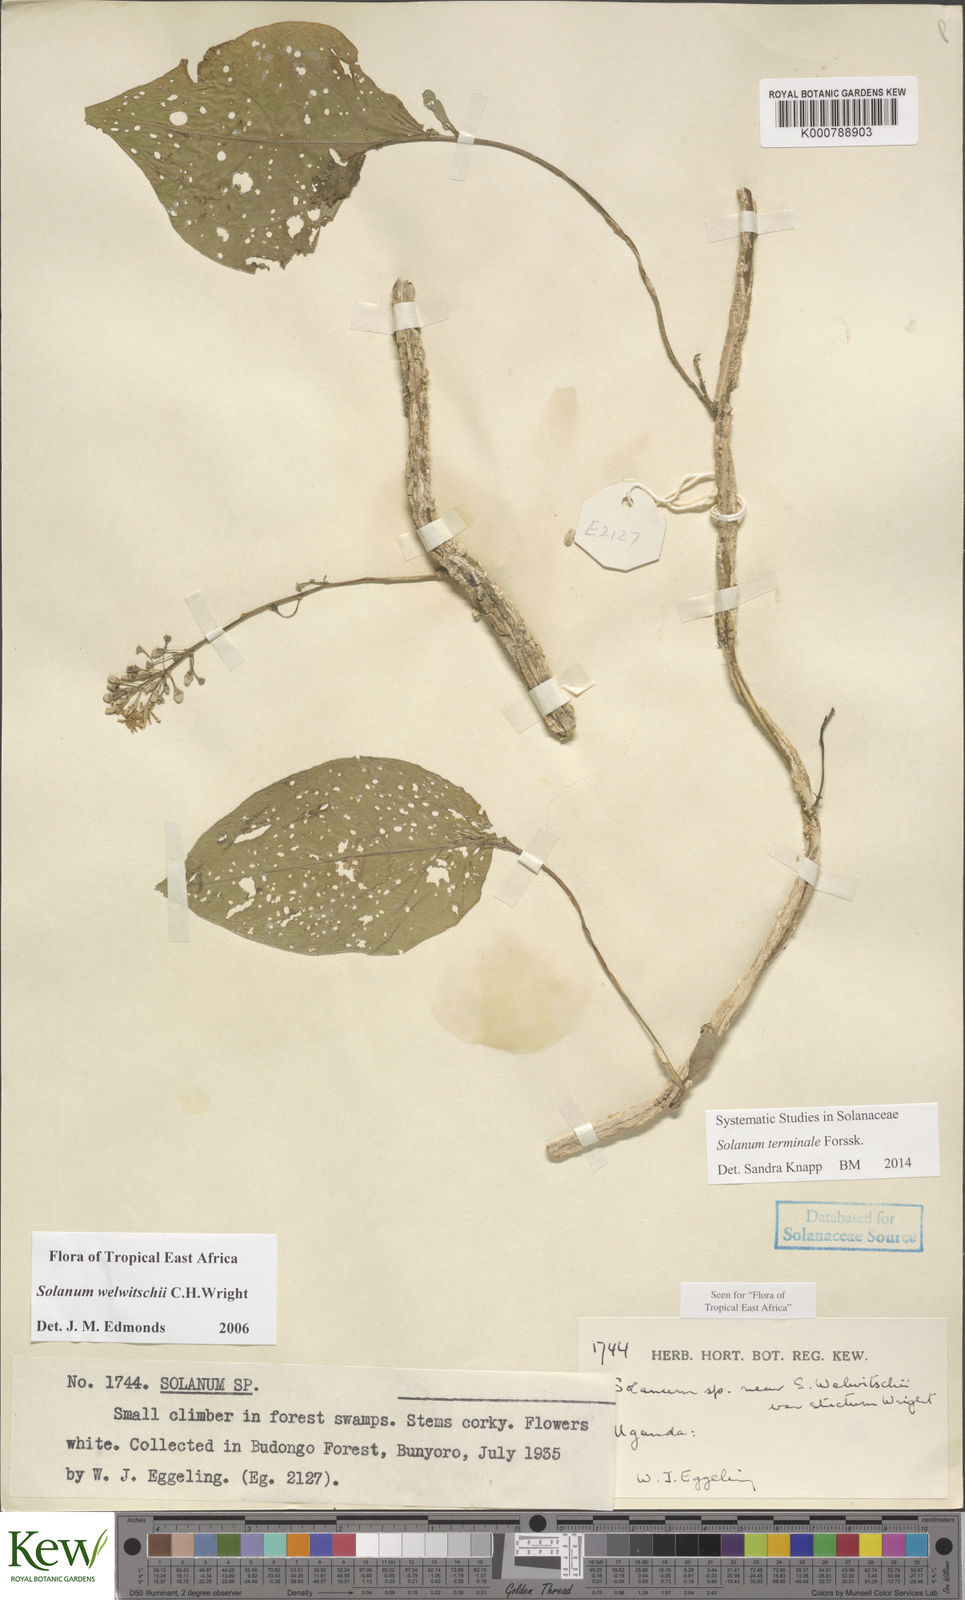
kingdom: Plantae
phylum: Tracheophyta
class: Magnoliopsida
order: Solanales
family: Solanaceae
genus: Solanum
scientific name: Solanum terminale
